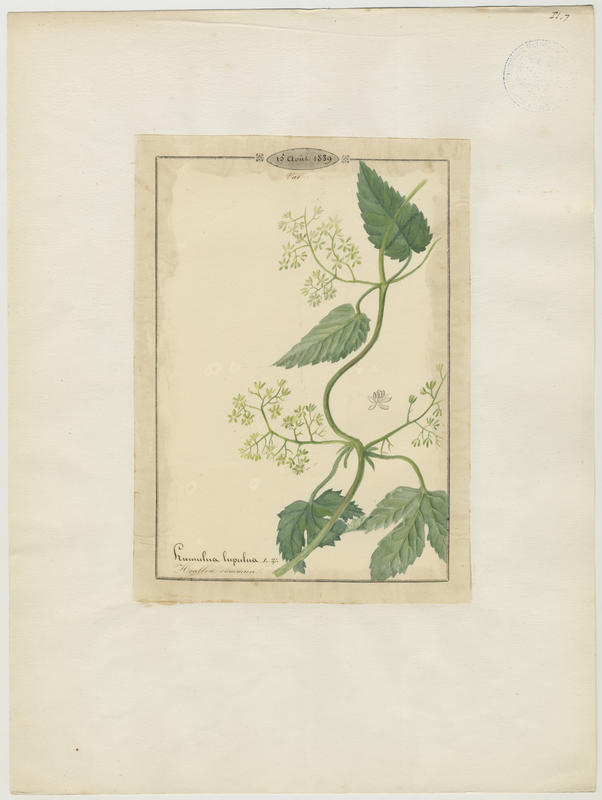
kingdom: Plantae
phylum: Tracheophyta
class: Magnoliopsida
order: Rosales
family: Cannabaceae
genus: Humulus
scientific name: Humulus lupulus
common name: Hop
